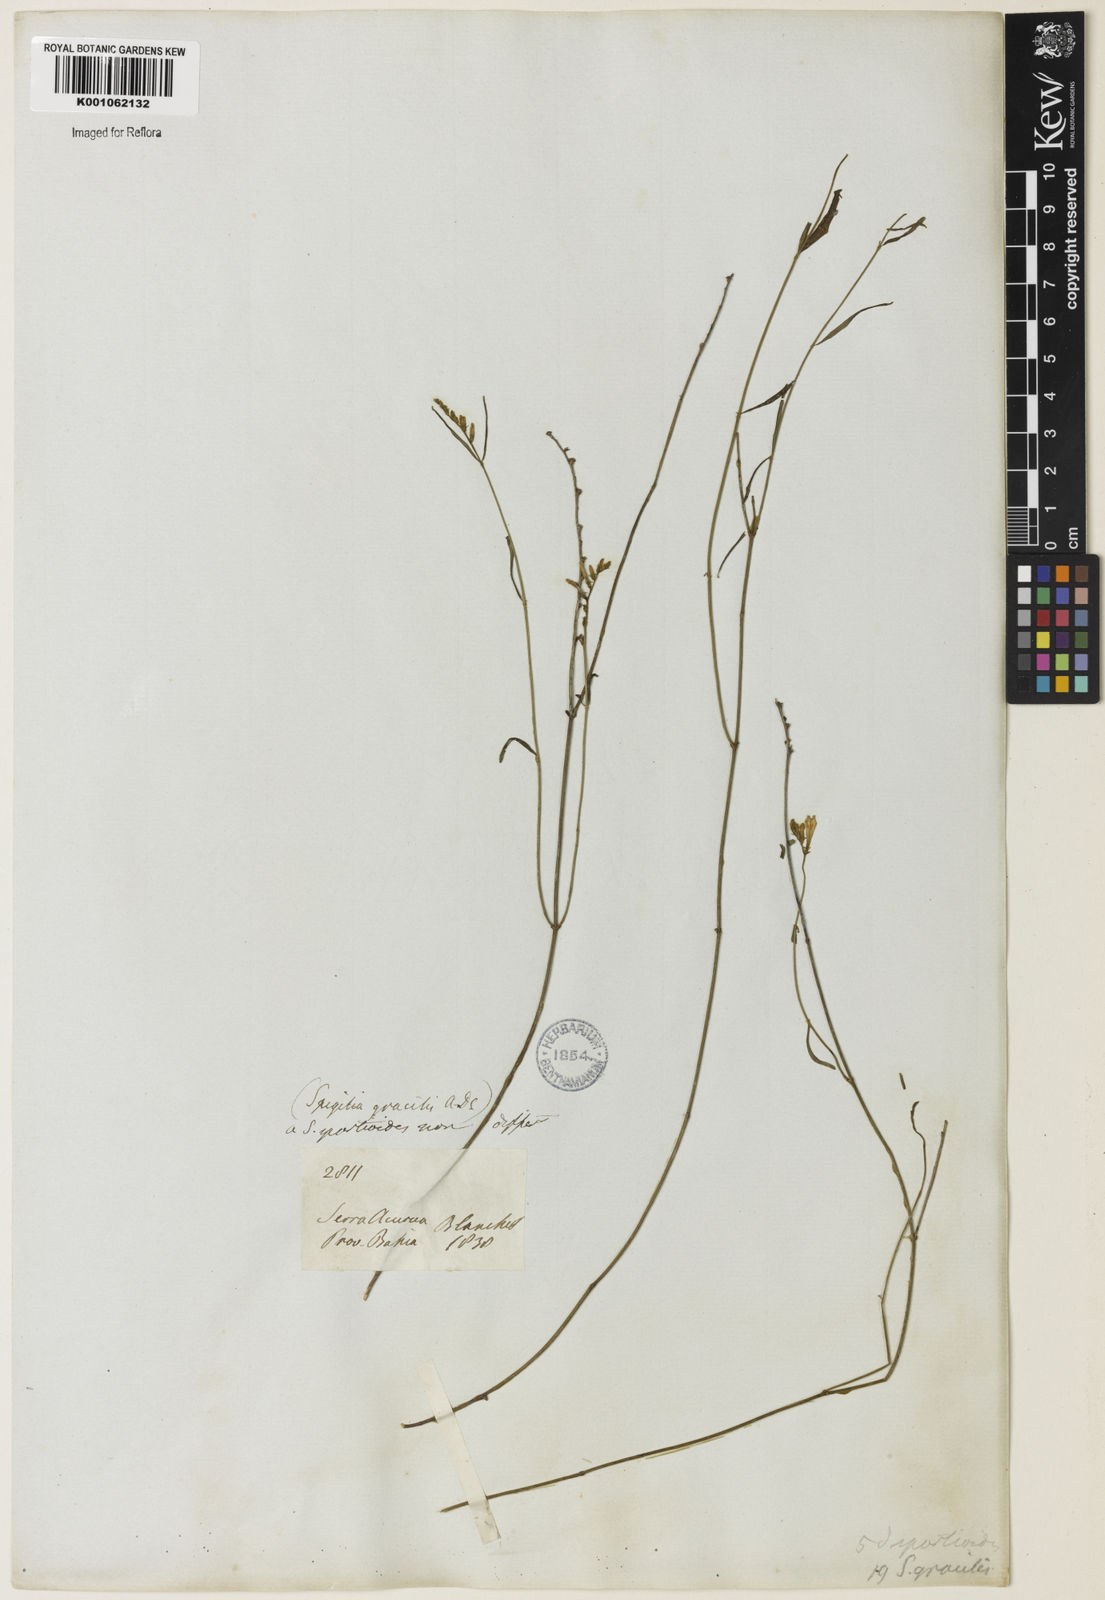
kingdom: Plantae
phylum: Tracheophyta
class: Magnoliopsida
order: Gentianales
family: Loganiaceae
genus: Spigelia
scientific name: Spigelia
